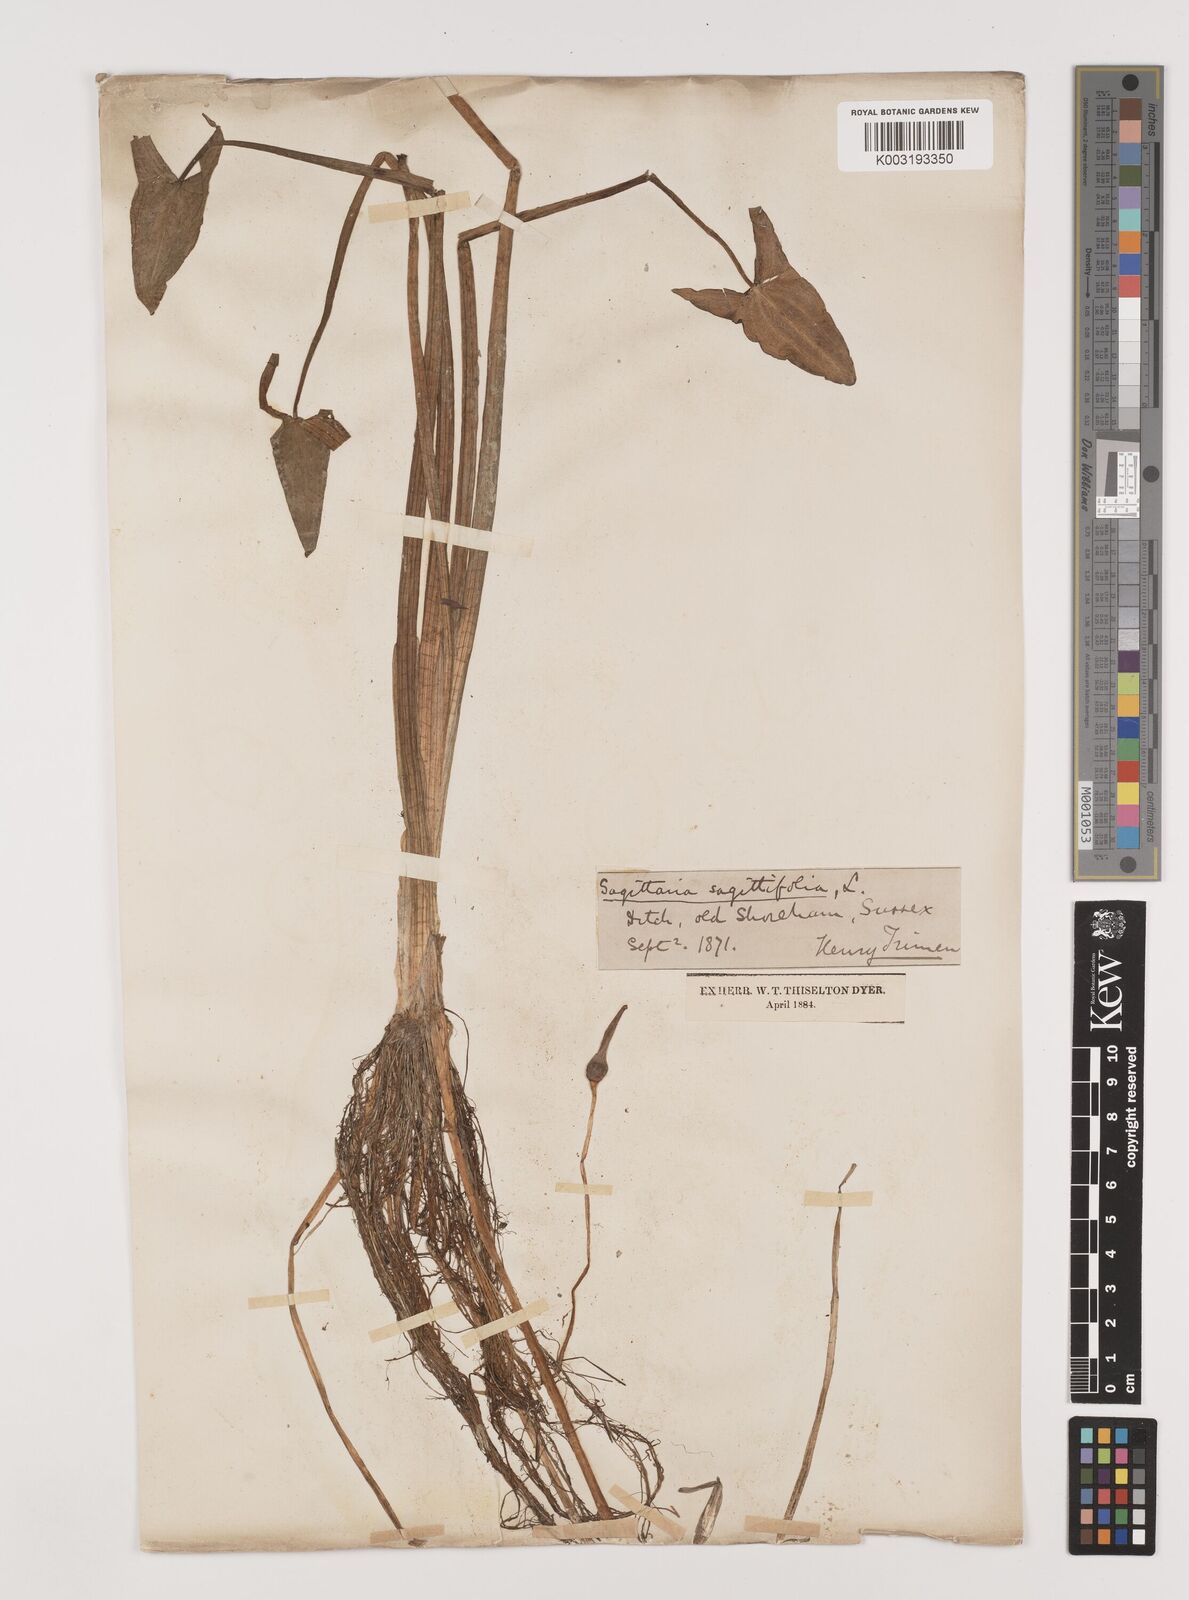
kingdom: Plantae
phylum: Tracheophyta
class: Liliopsida
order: Alismatales
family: Alismataceae
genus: Sagittaria
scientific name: Sagittaria sagittifolia
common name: Arrowhead
